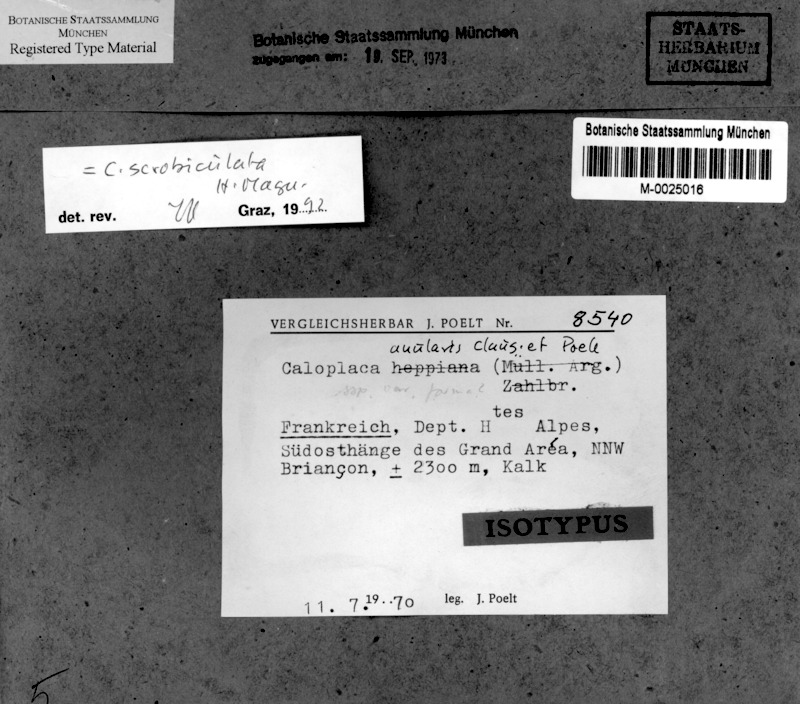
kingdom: Fungi
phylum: Ascomycota
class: Lecanoromycetes
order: Teloschistales
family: Teloschistaceae
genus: Caloplaca
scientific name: Caloplaca scrobiculata
